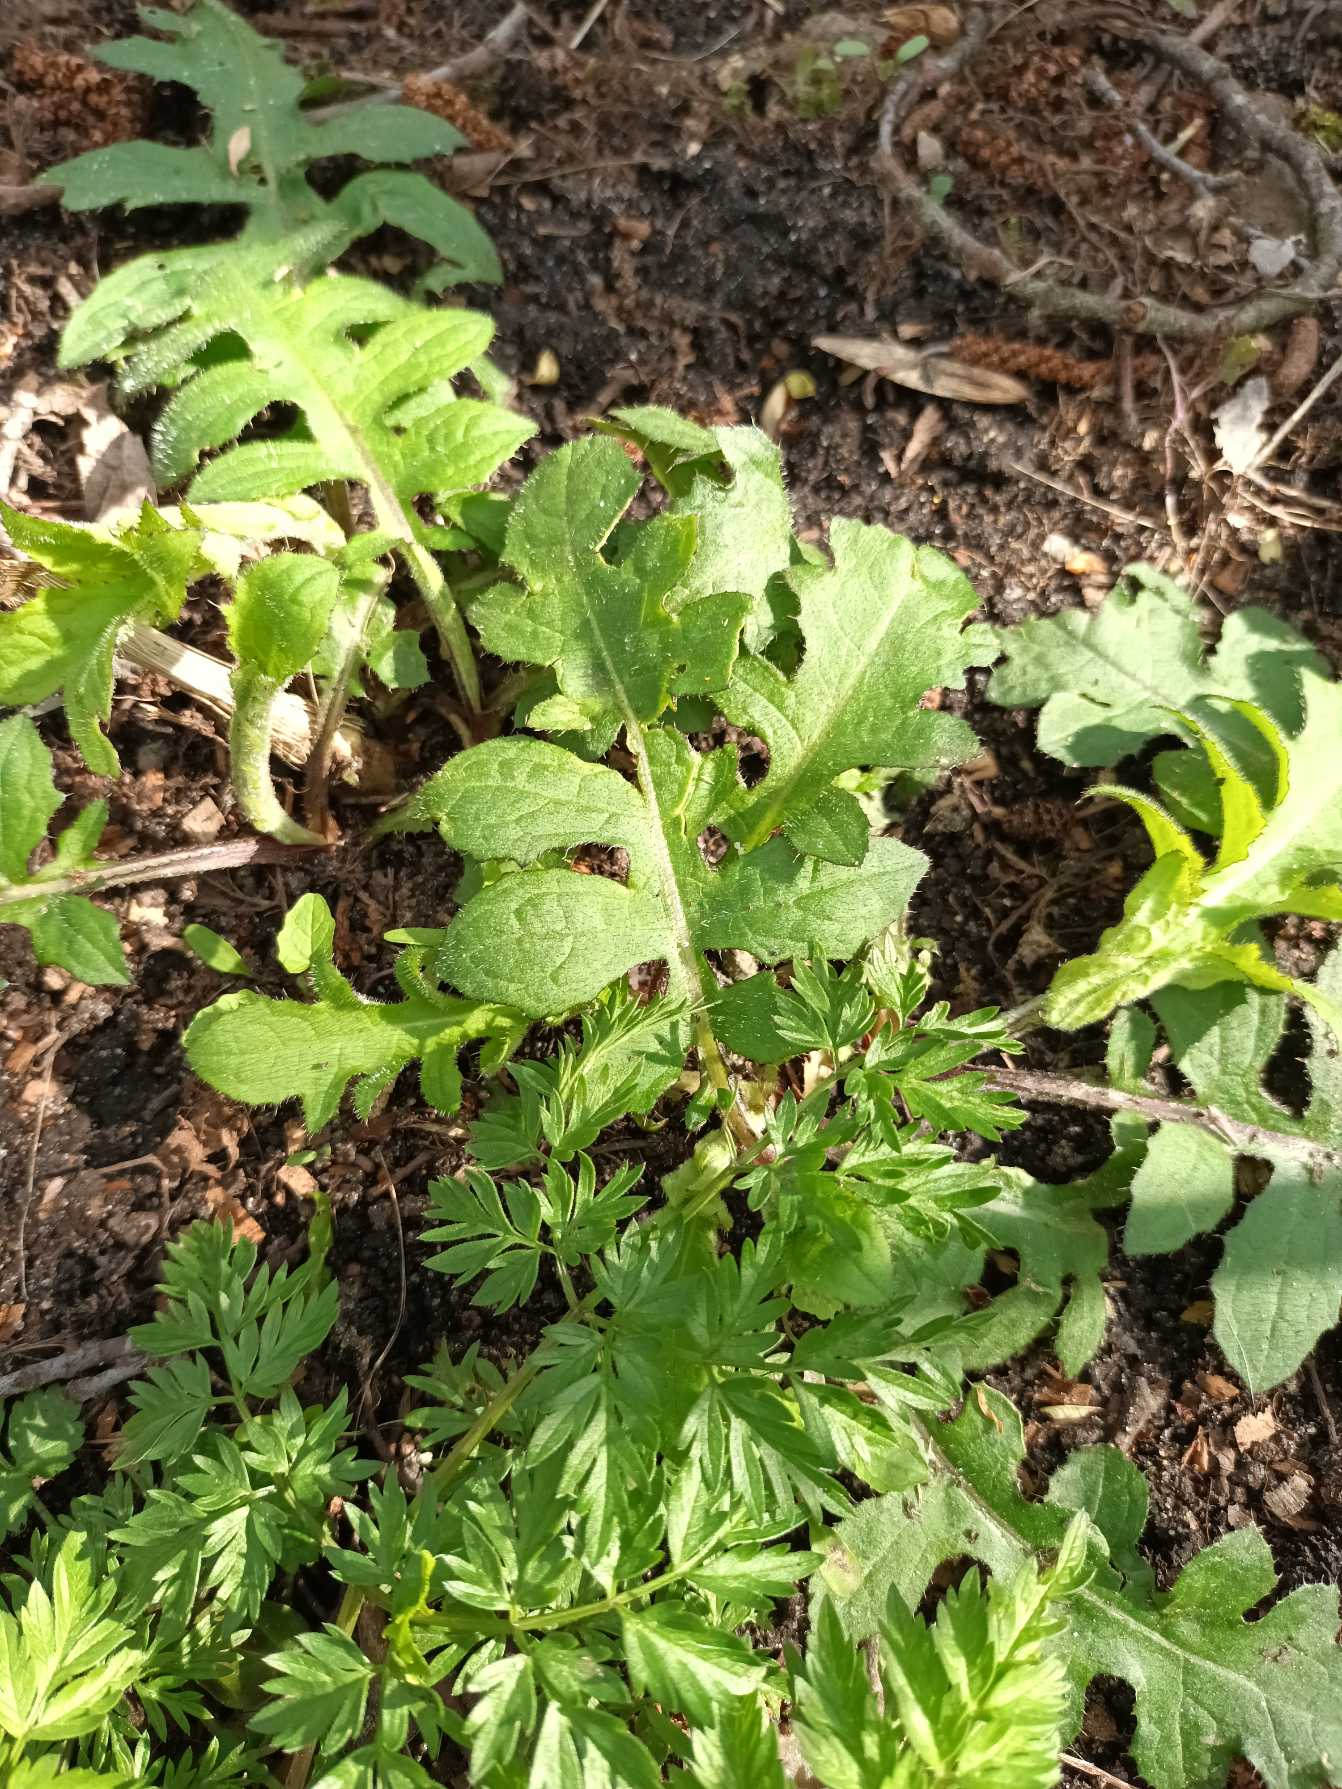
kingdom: Plantae
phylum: Tracheophyta
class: Magnoliopsida
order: Asterales
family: Asteraceae
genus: Cirsium
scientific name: Cirsium oleraceum
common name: Kål-tidsel
